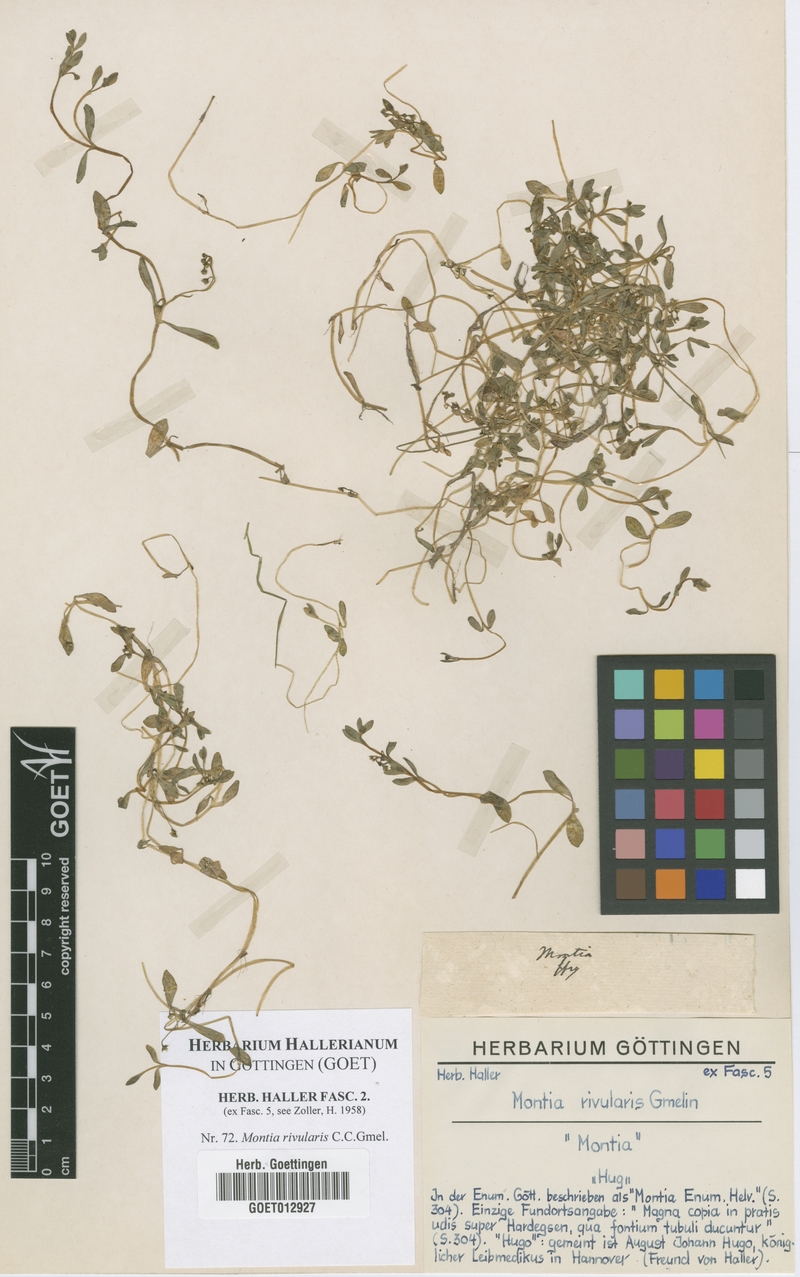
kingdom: Plantae
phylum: Tracheophyta
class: Magnoliopsida
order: Caryophyllales
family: Montiaceae
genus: Montia
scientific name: Montia fontana
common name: Blinks
